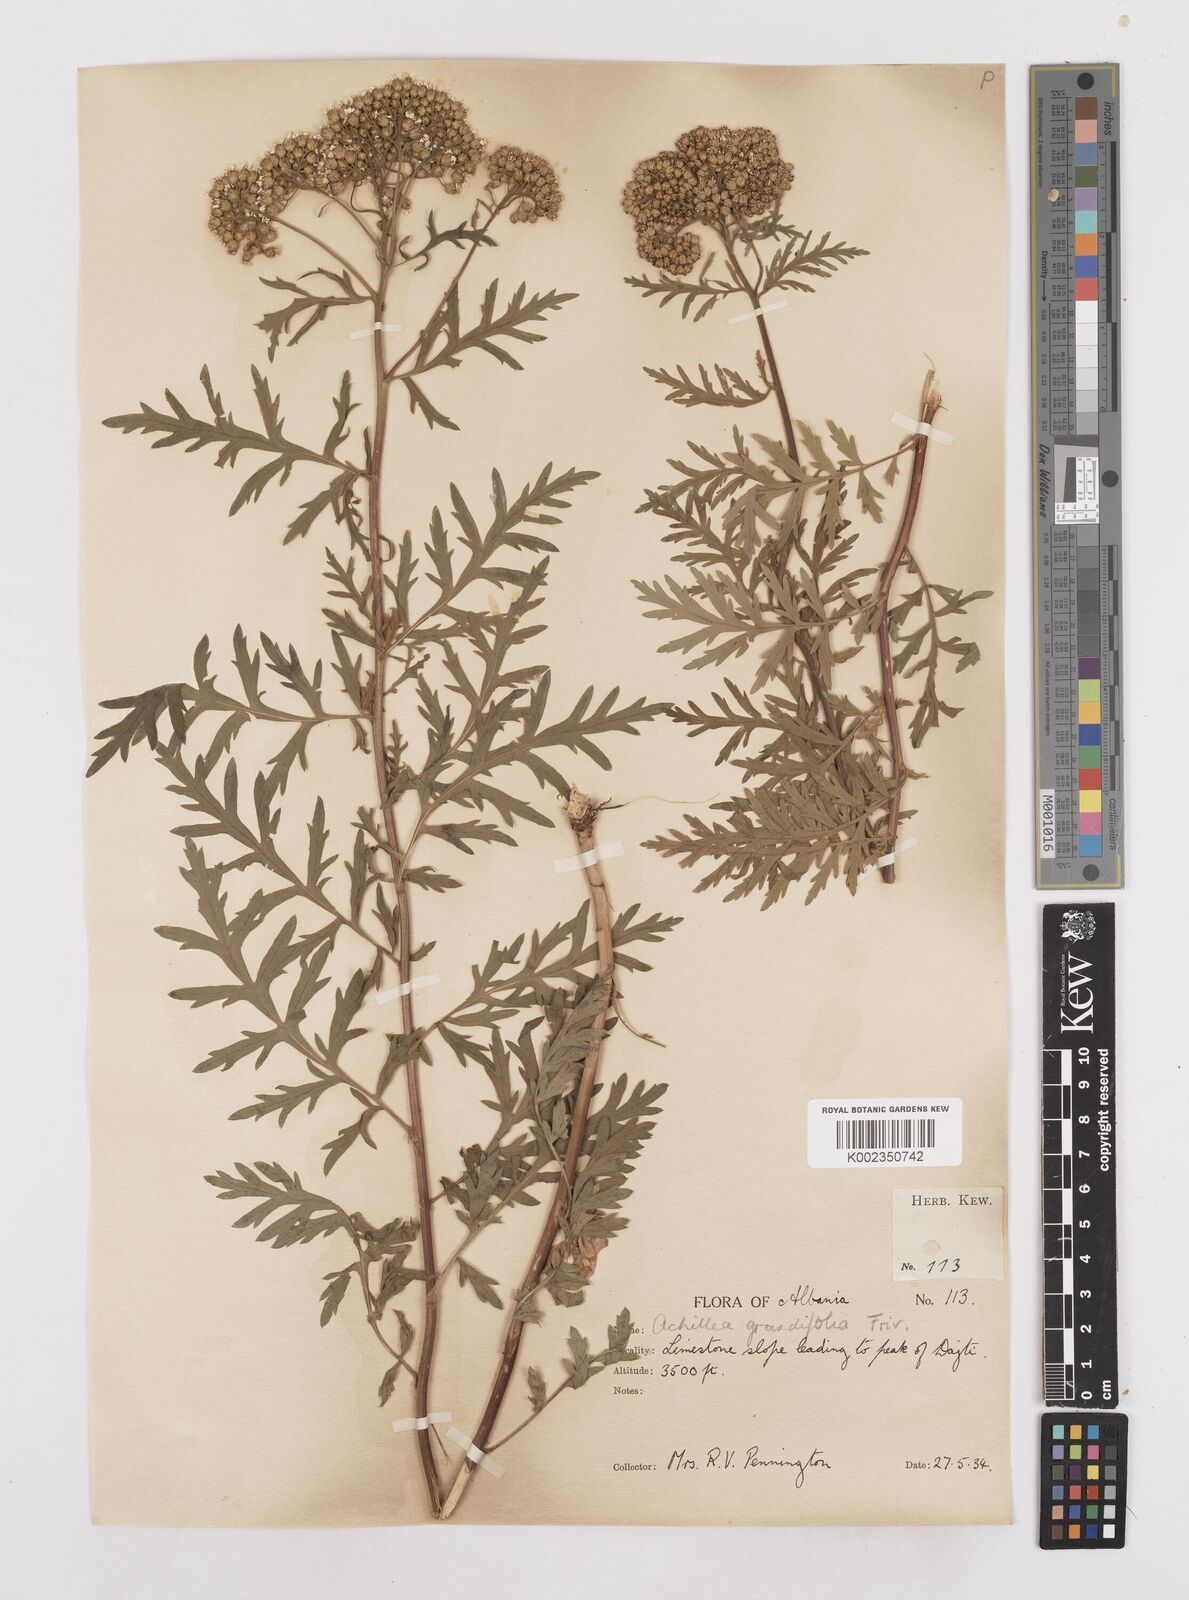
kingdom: Plantae
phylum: Tracheophyta
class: Magnoliopsida
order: Asterales
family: Asteraceae
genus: Achillea
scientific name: Achillea grandifolia
